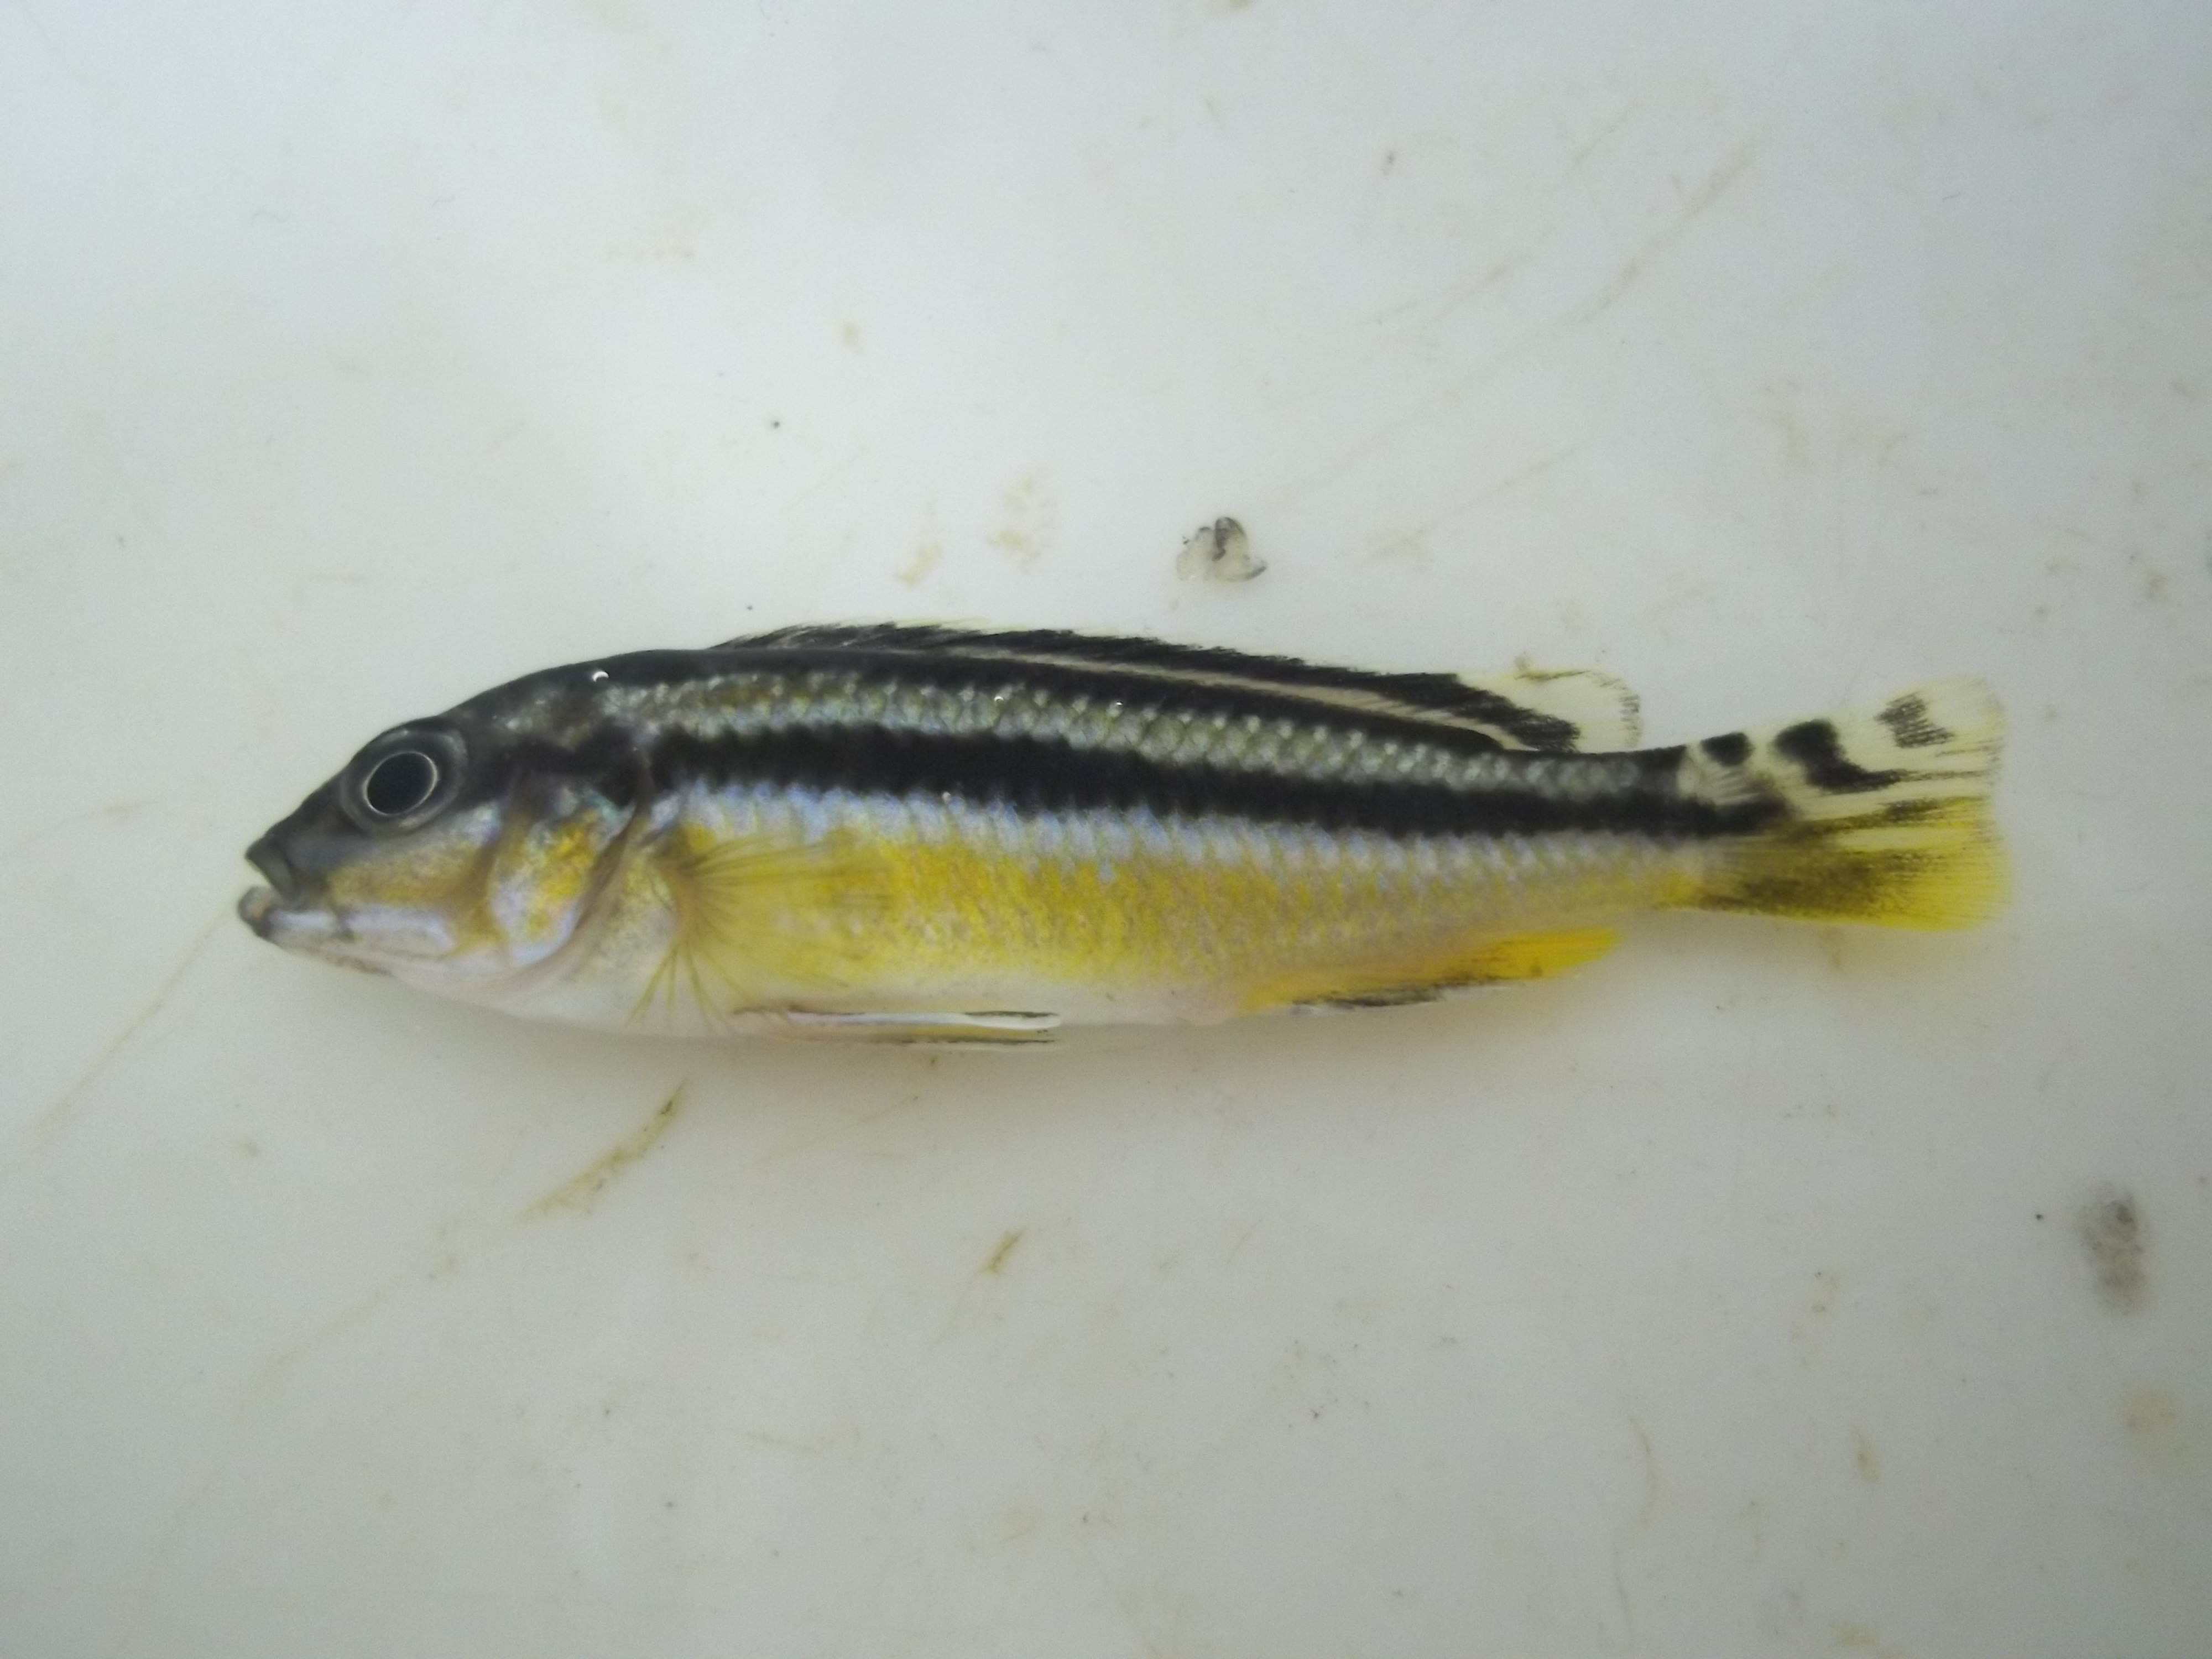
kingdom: Animalia
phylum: Chordata
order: Perciformes
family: Cichlidae
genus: Melanochromis
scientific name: Melanochromis chipokae
